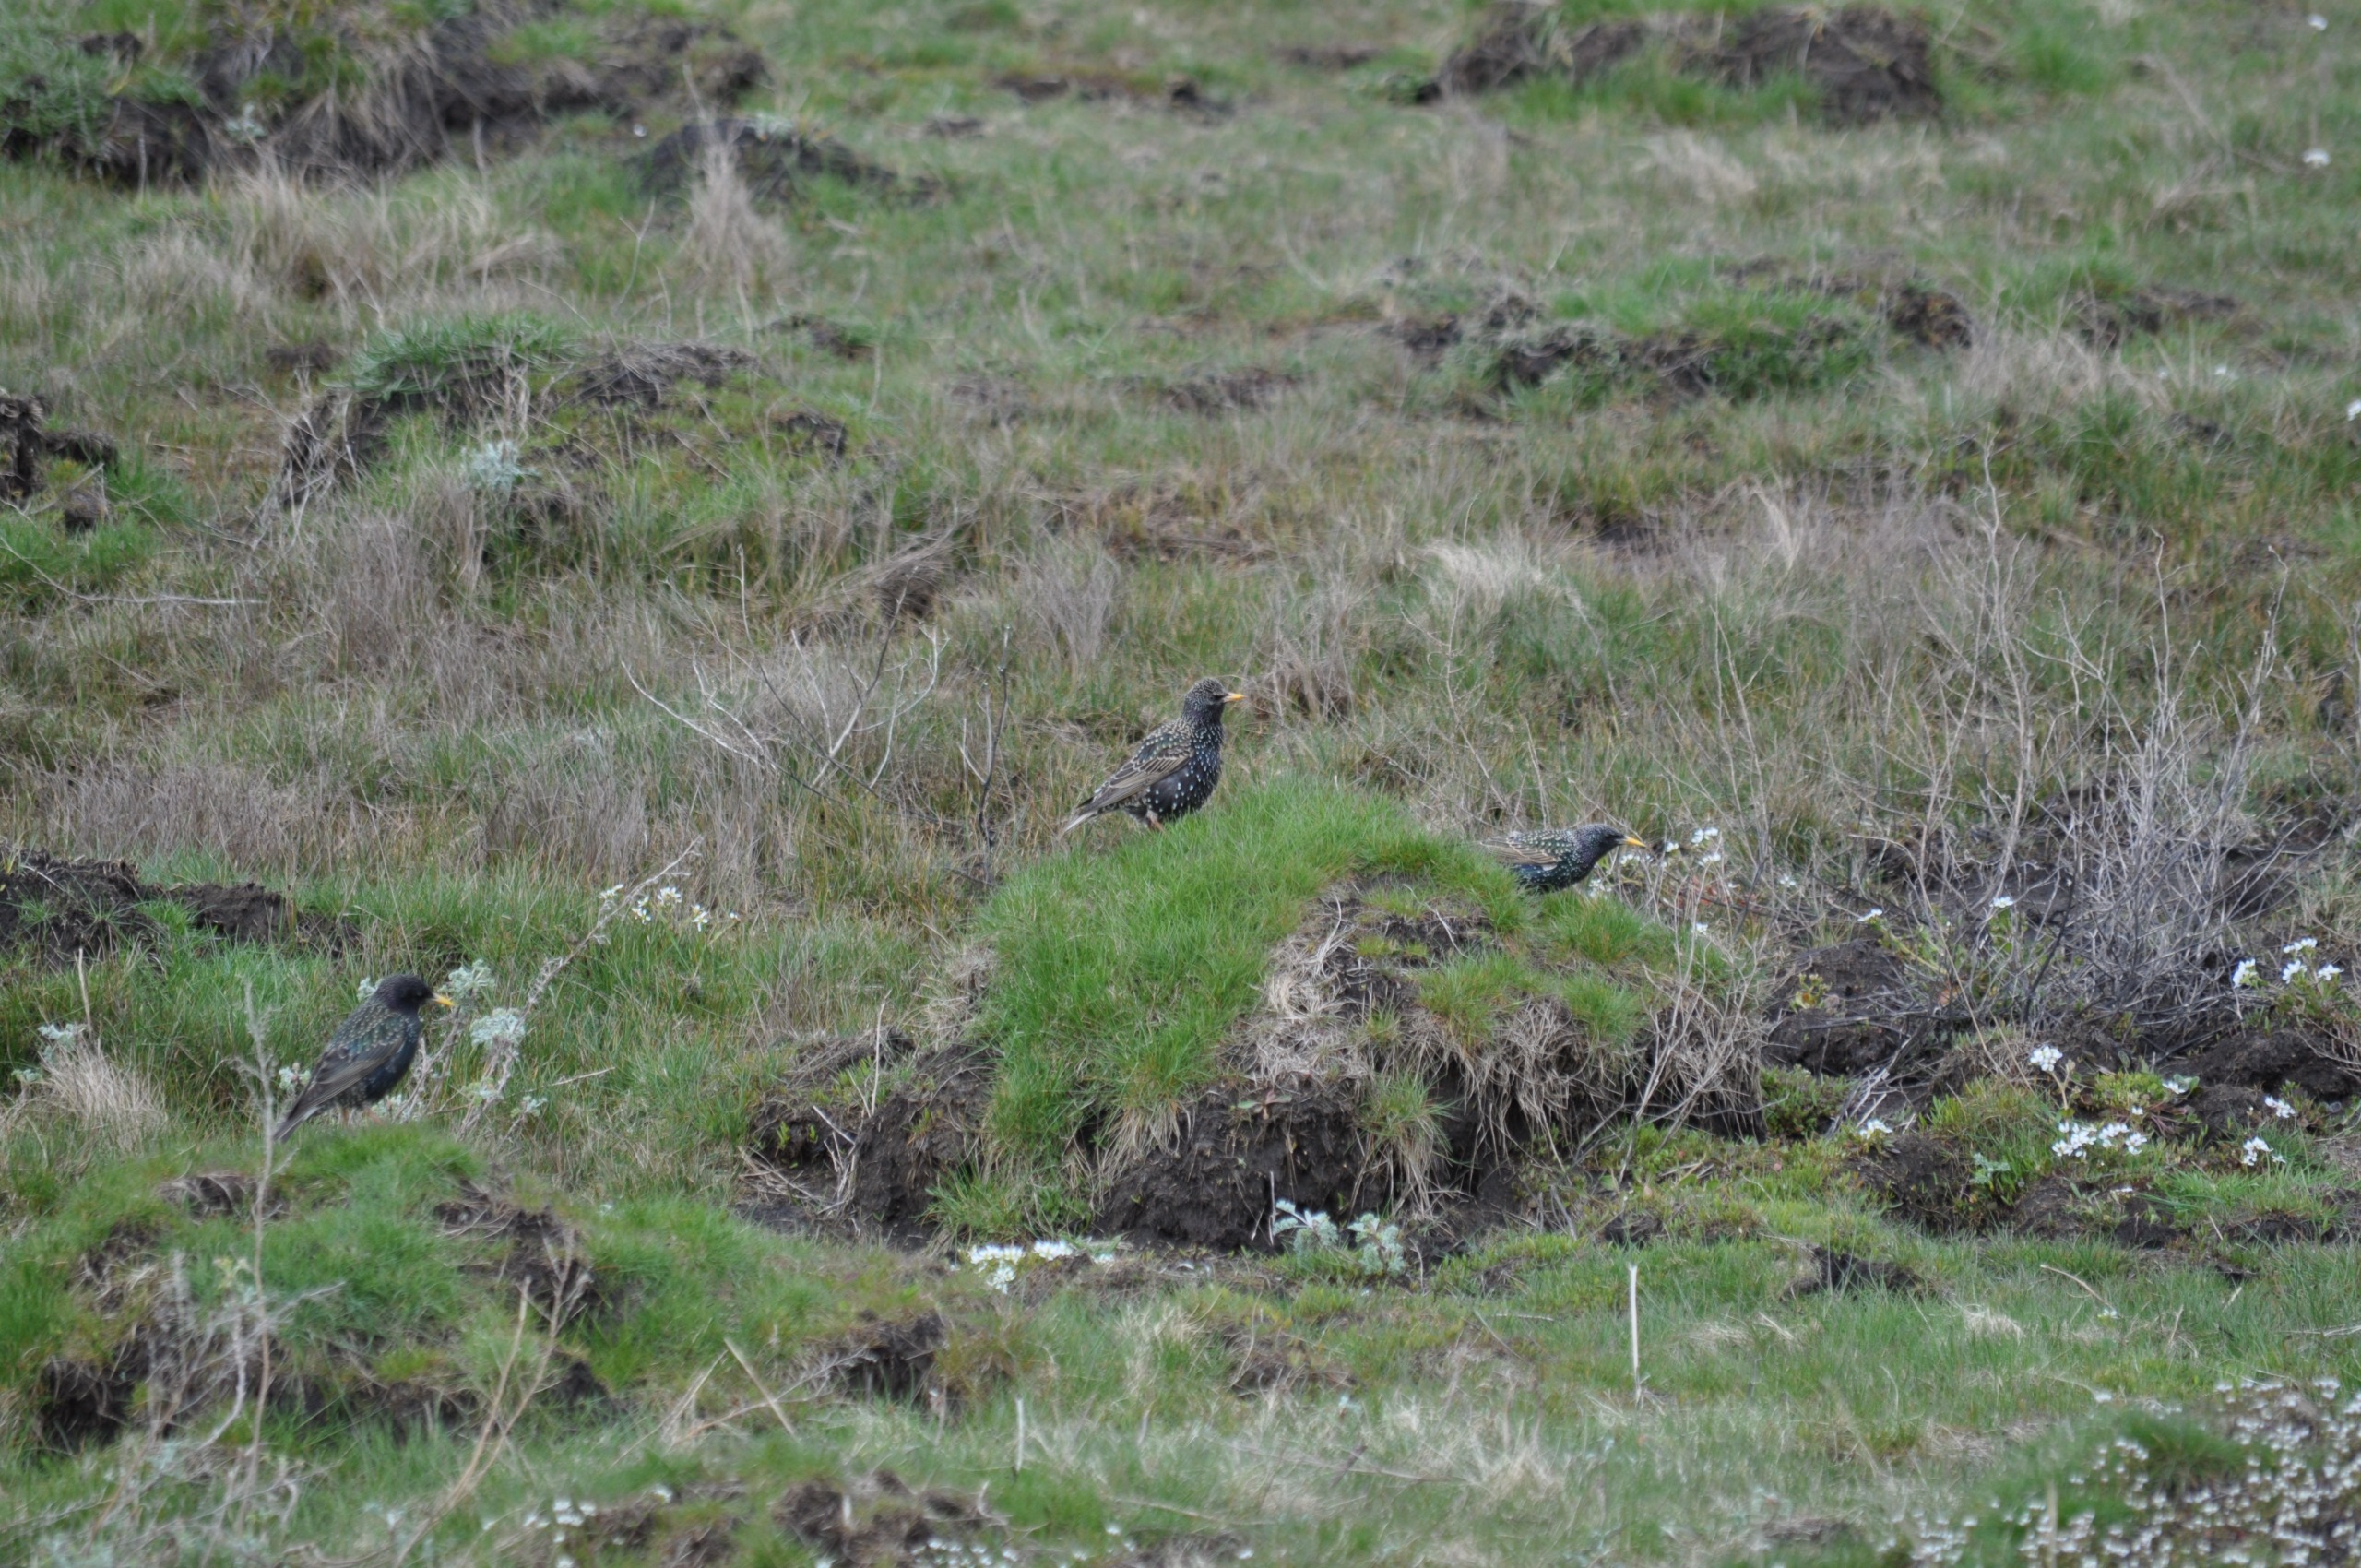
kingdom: Animalia
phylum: Chordata
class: Aves
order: Passeriformes
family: Sturnidae
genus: Sturnus
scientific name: Sturnus vulgaris
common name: Stær
